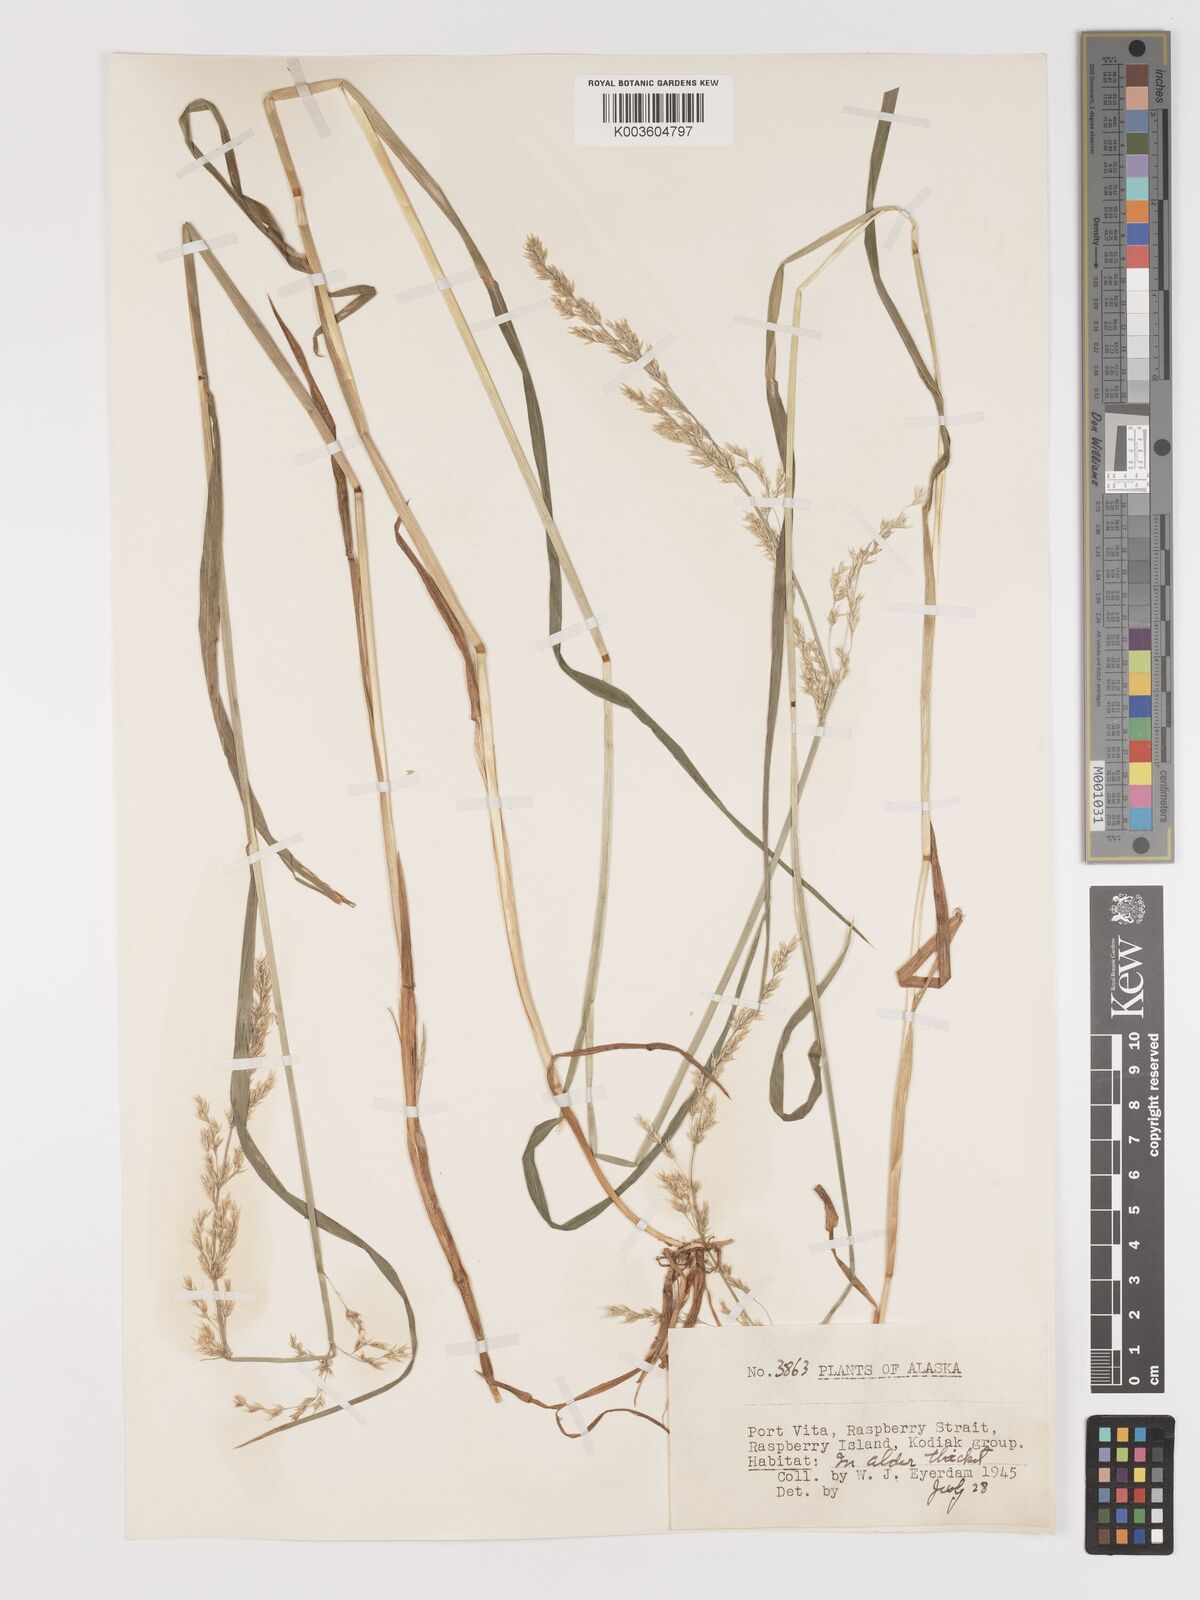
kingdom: Plantae
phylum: Tracheophyta
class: Liliopsida
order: Poales
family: Poaceae
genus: Agrostis
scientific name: Agrostis
